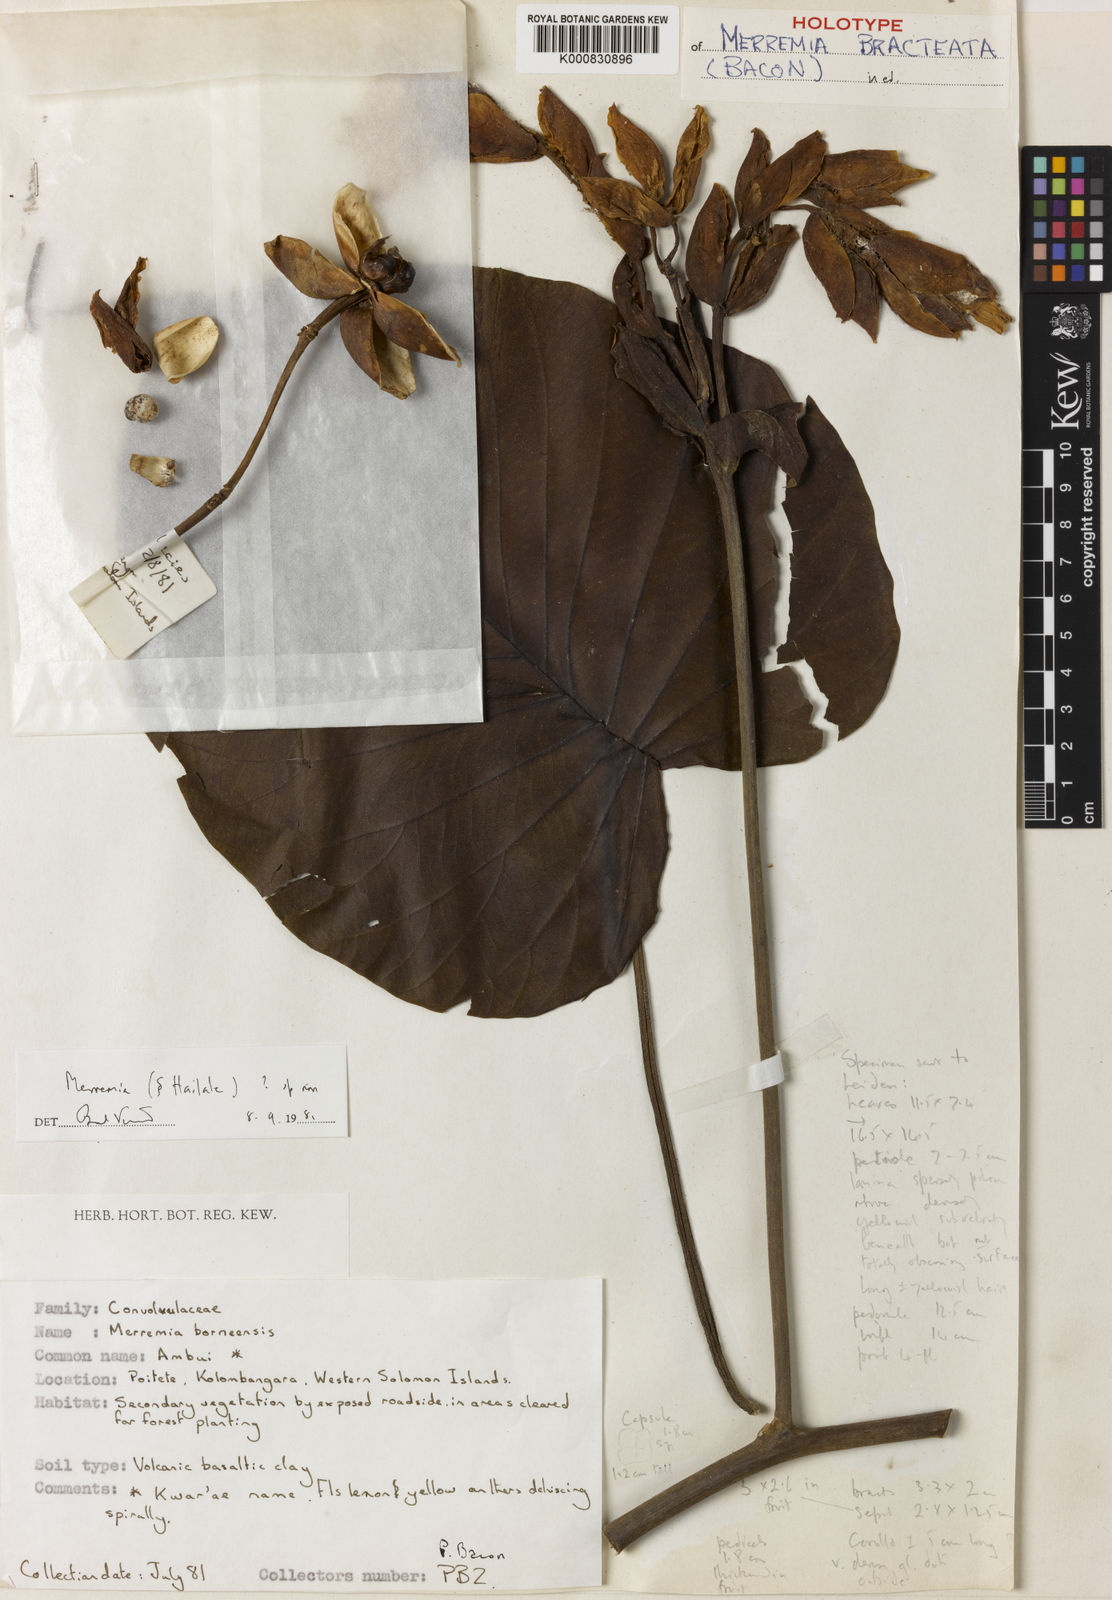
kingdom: Plantae
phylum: Tracheophyta
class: Magnoliopsida
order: Solanales
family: Convolvulaceae
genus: Decalobanthus
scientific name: Decalobanthus bracteatus
